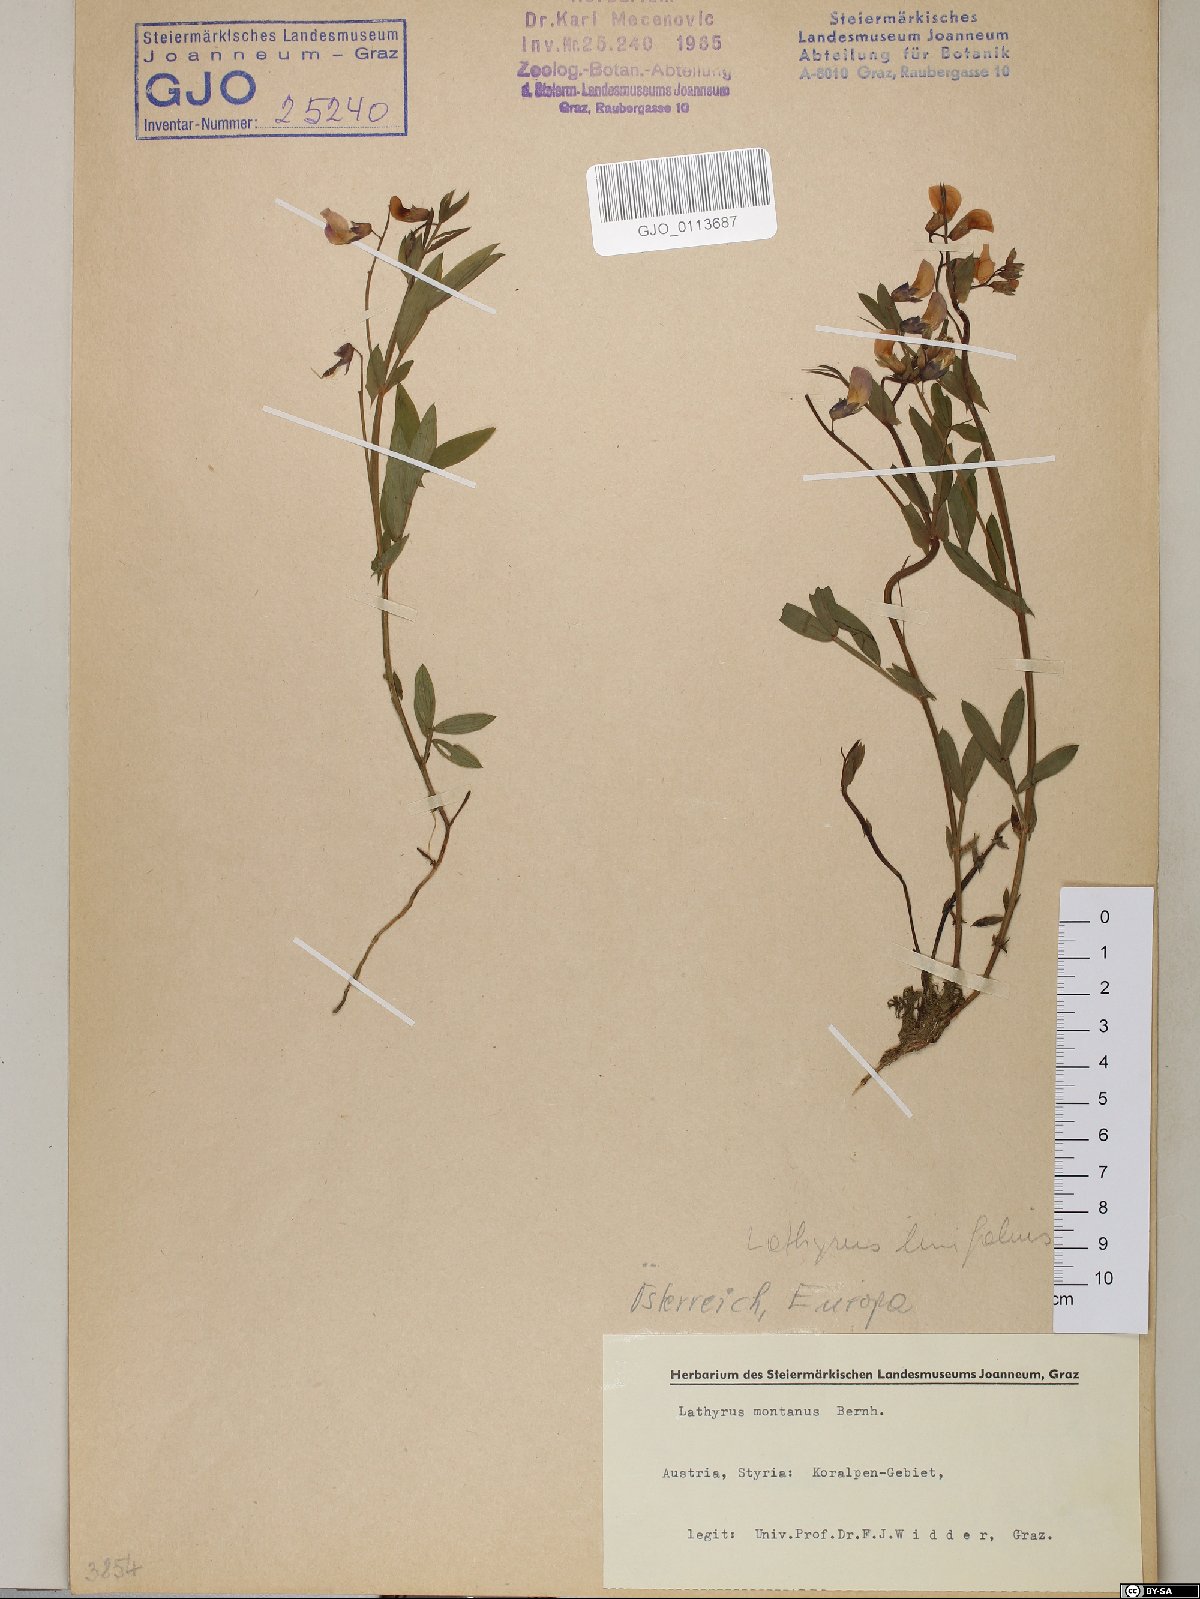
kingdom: Plantae
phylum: Tracheophyta
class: Magnoliopsida
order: Fabales
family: Fabaceae
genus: Lathyrus
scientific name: Lathyrus linifolius
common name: Bitter-vetch
